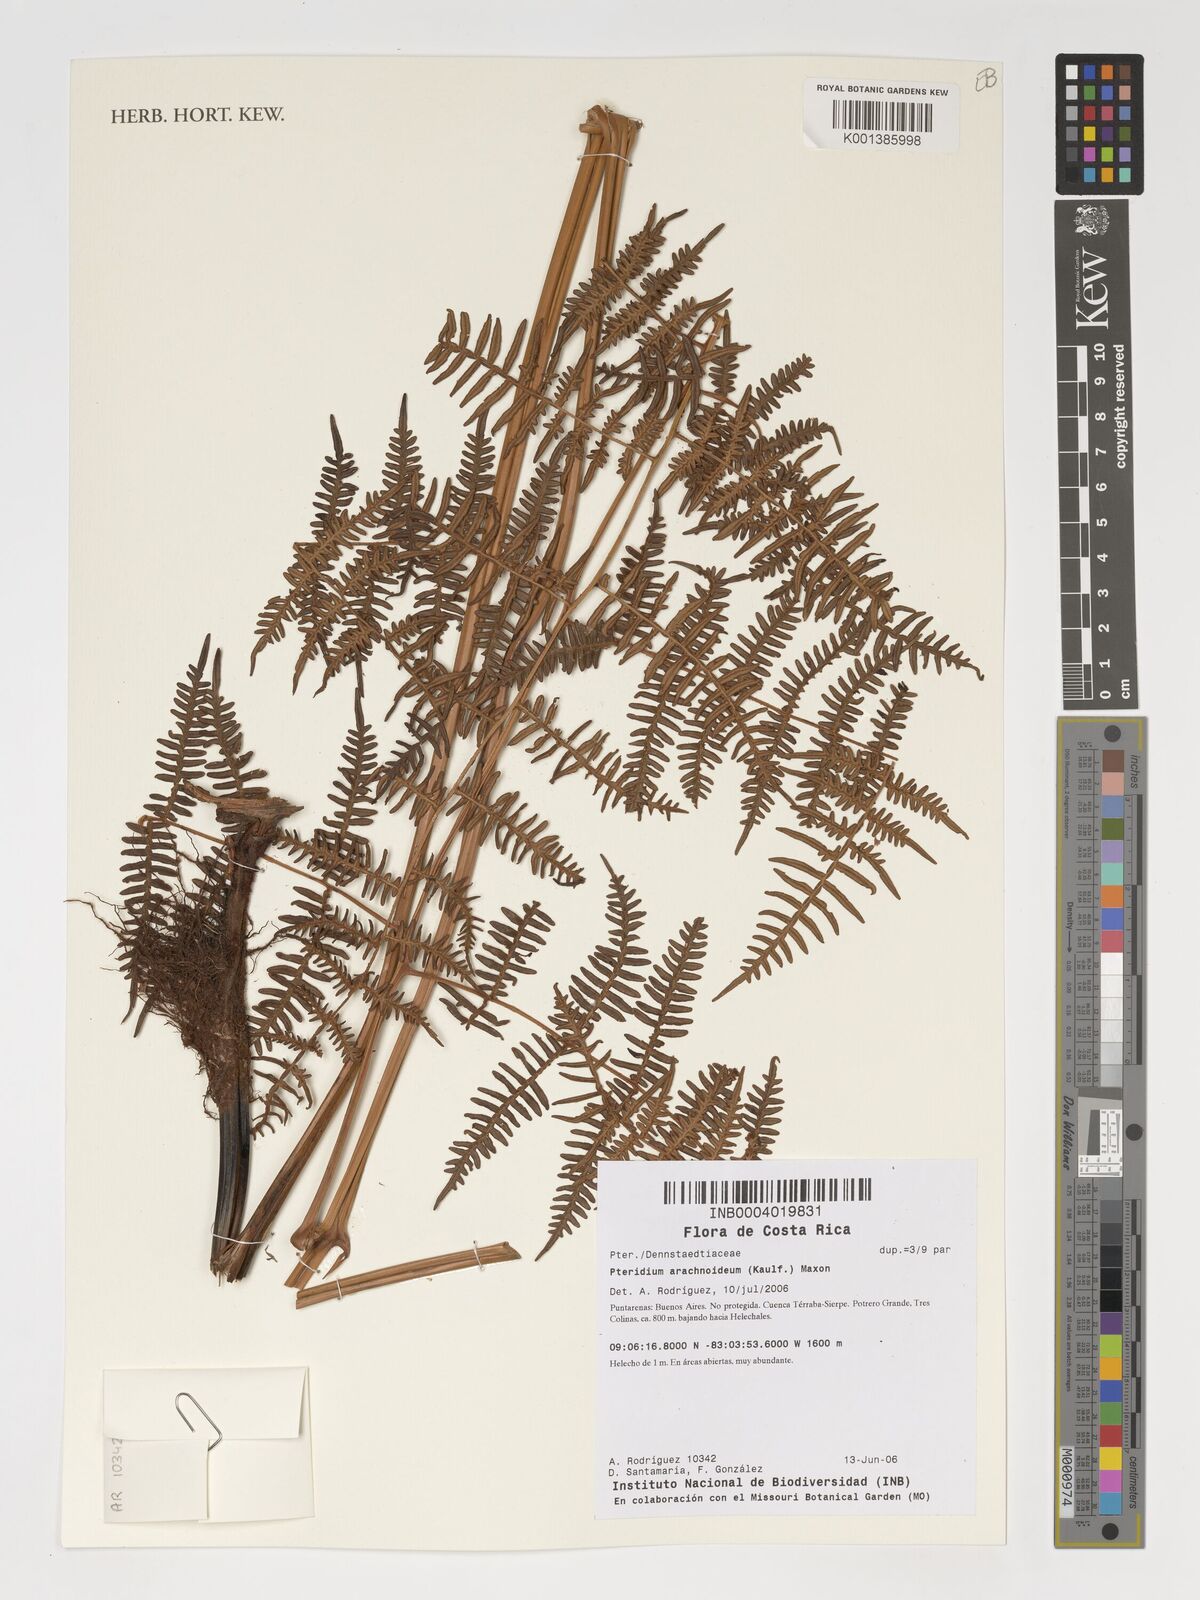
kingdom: Plantae
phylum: Tracheophyta
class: Polypodiopsida
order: Polypodiales
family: Dennstaedtiaceae
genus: Pteridium
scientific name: Pteridium esculentum
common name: Bracken fern
